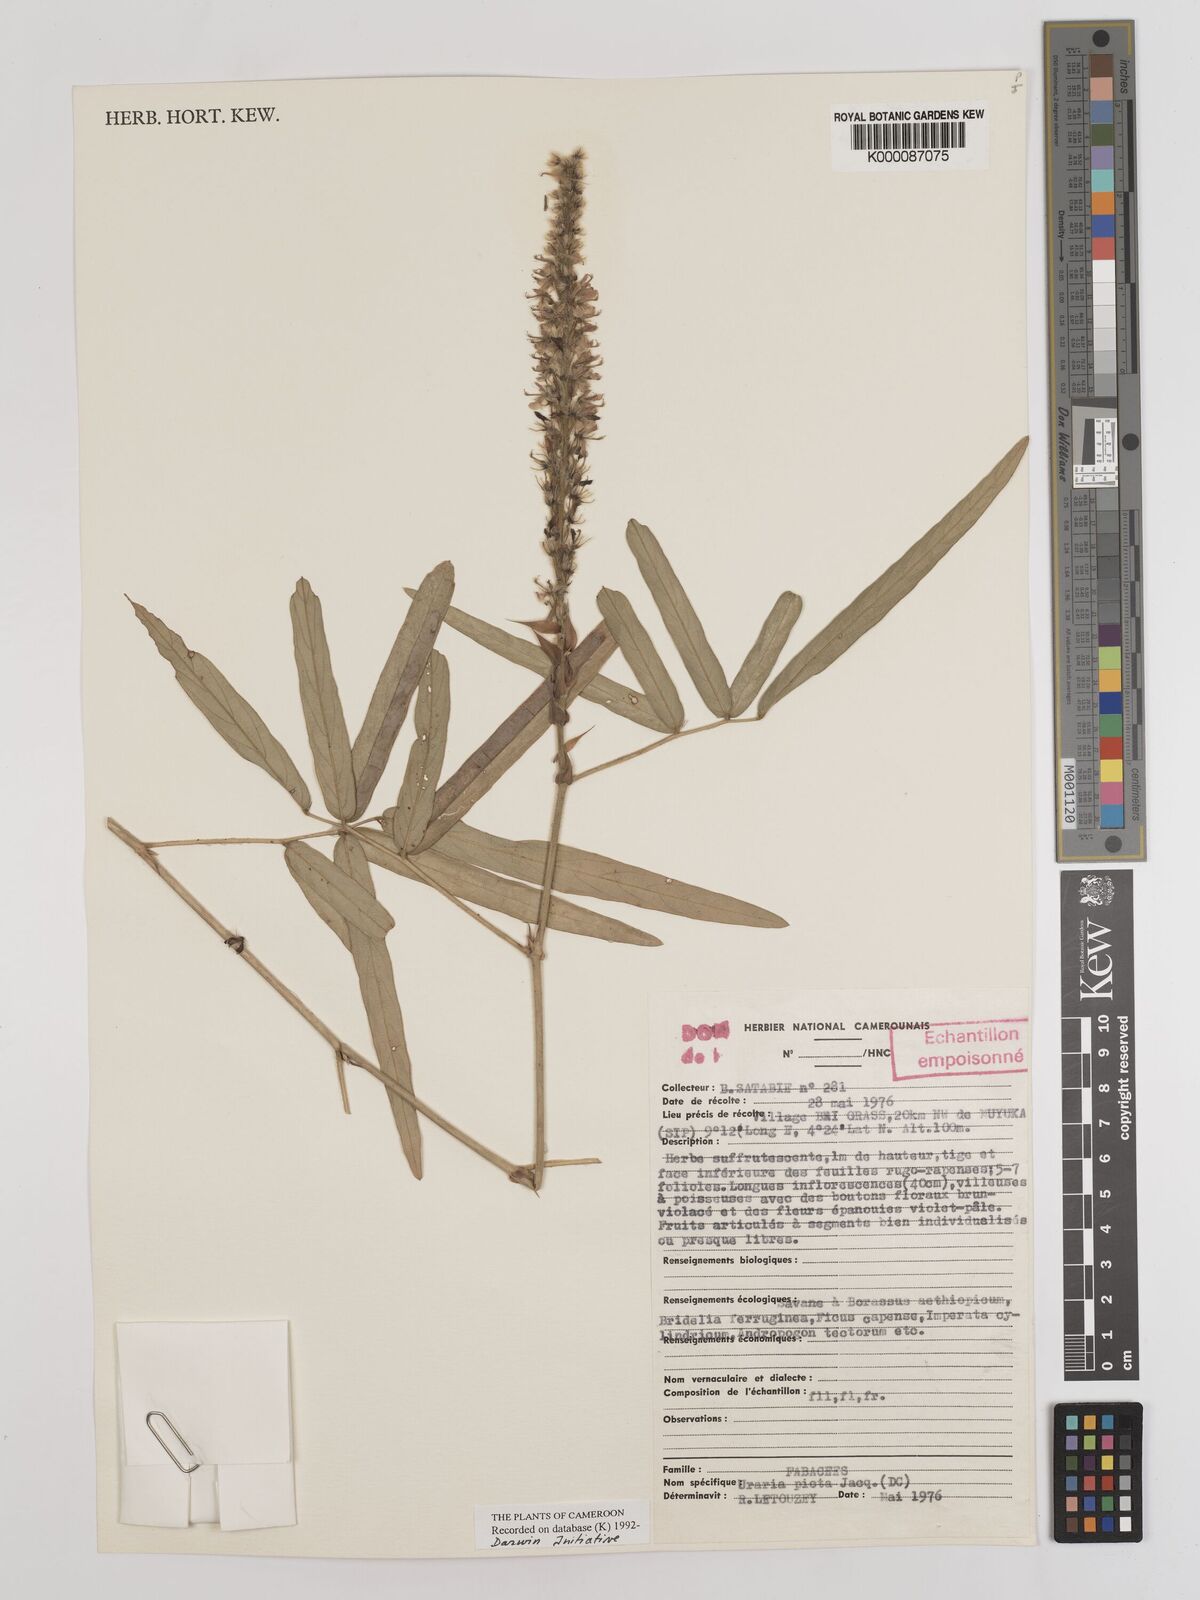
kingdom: Plantae
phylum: Tracheophyta
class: Magnoliopsida
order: Fabales
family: Fabaceae
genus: Uraria
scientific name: Uraria picta
